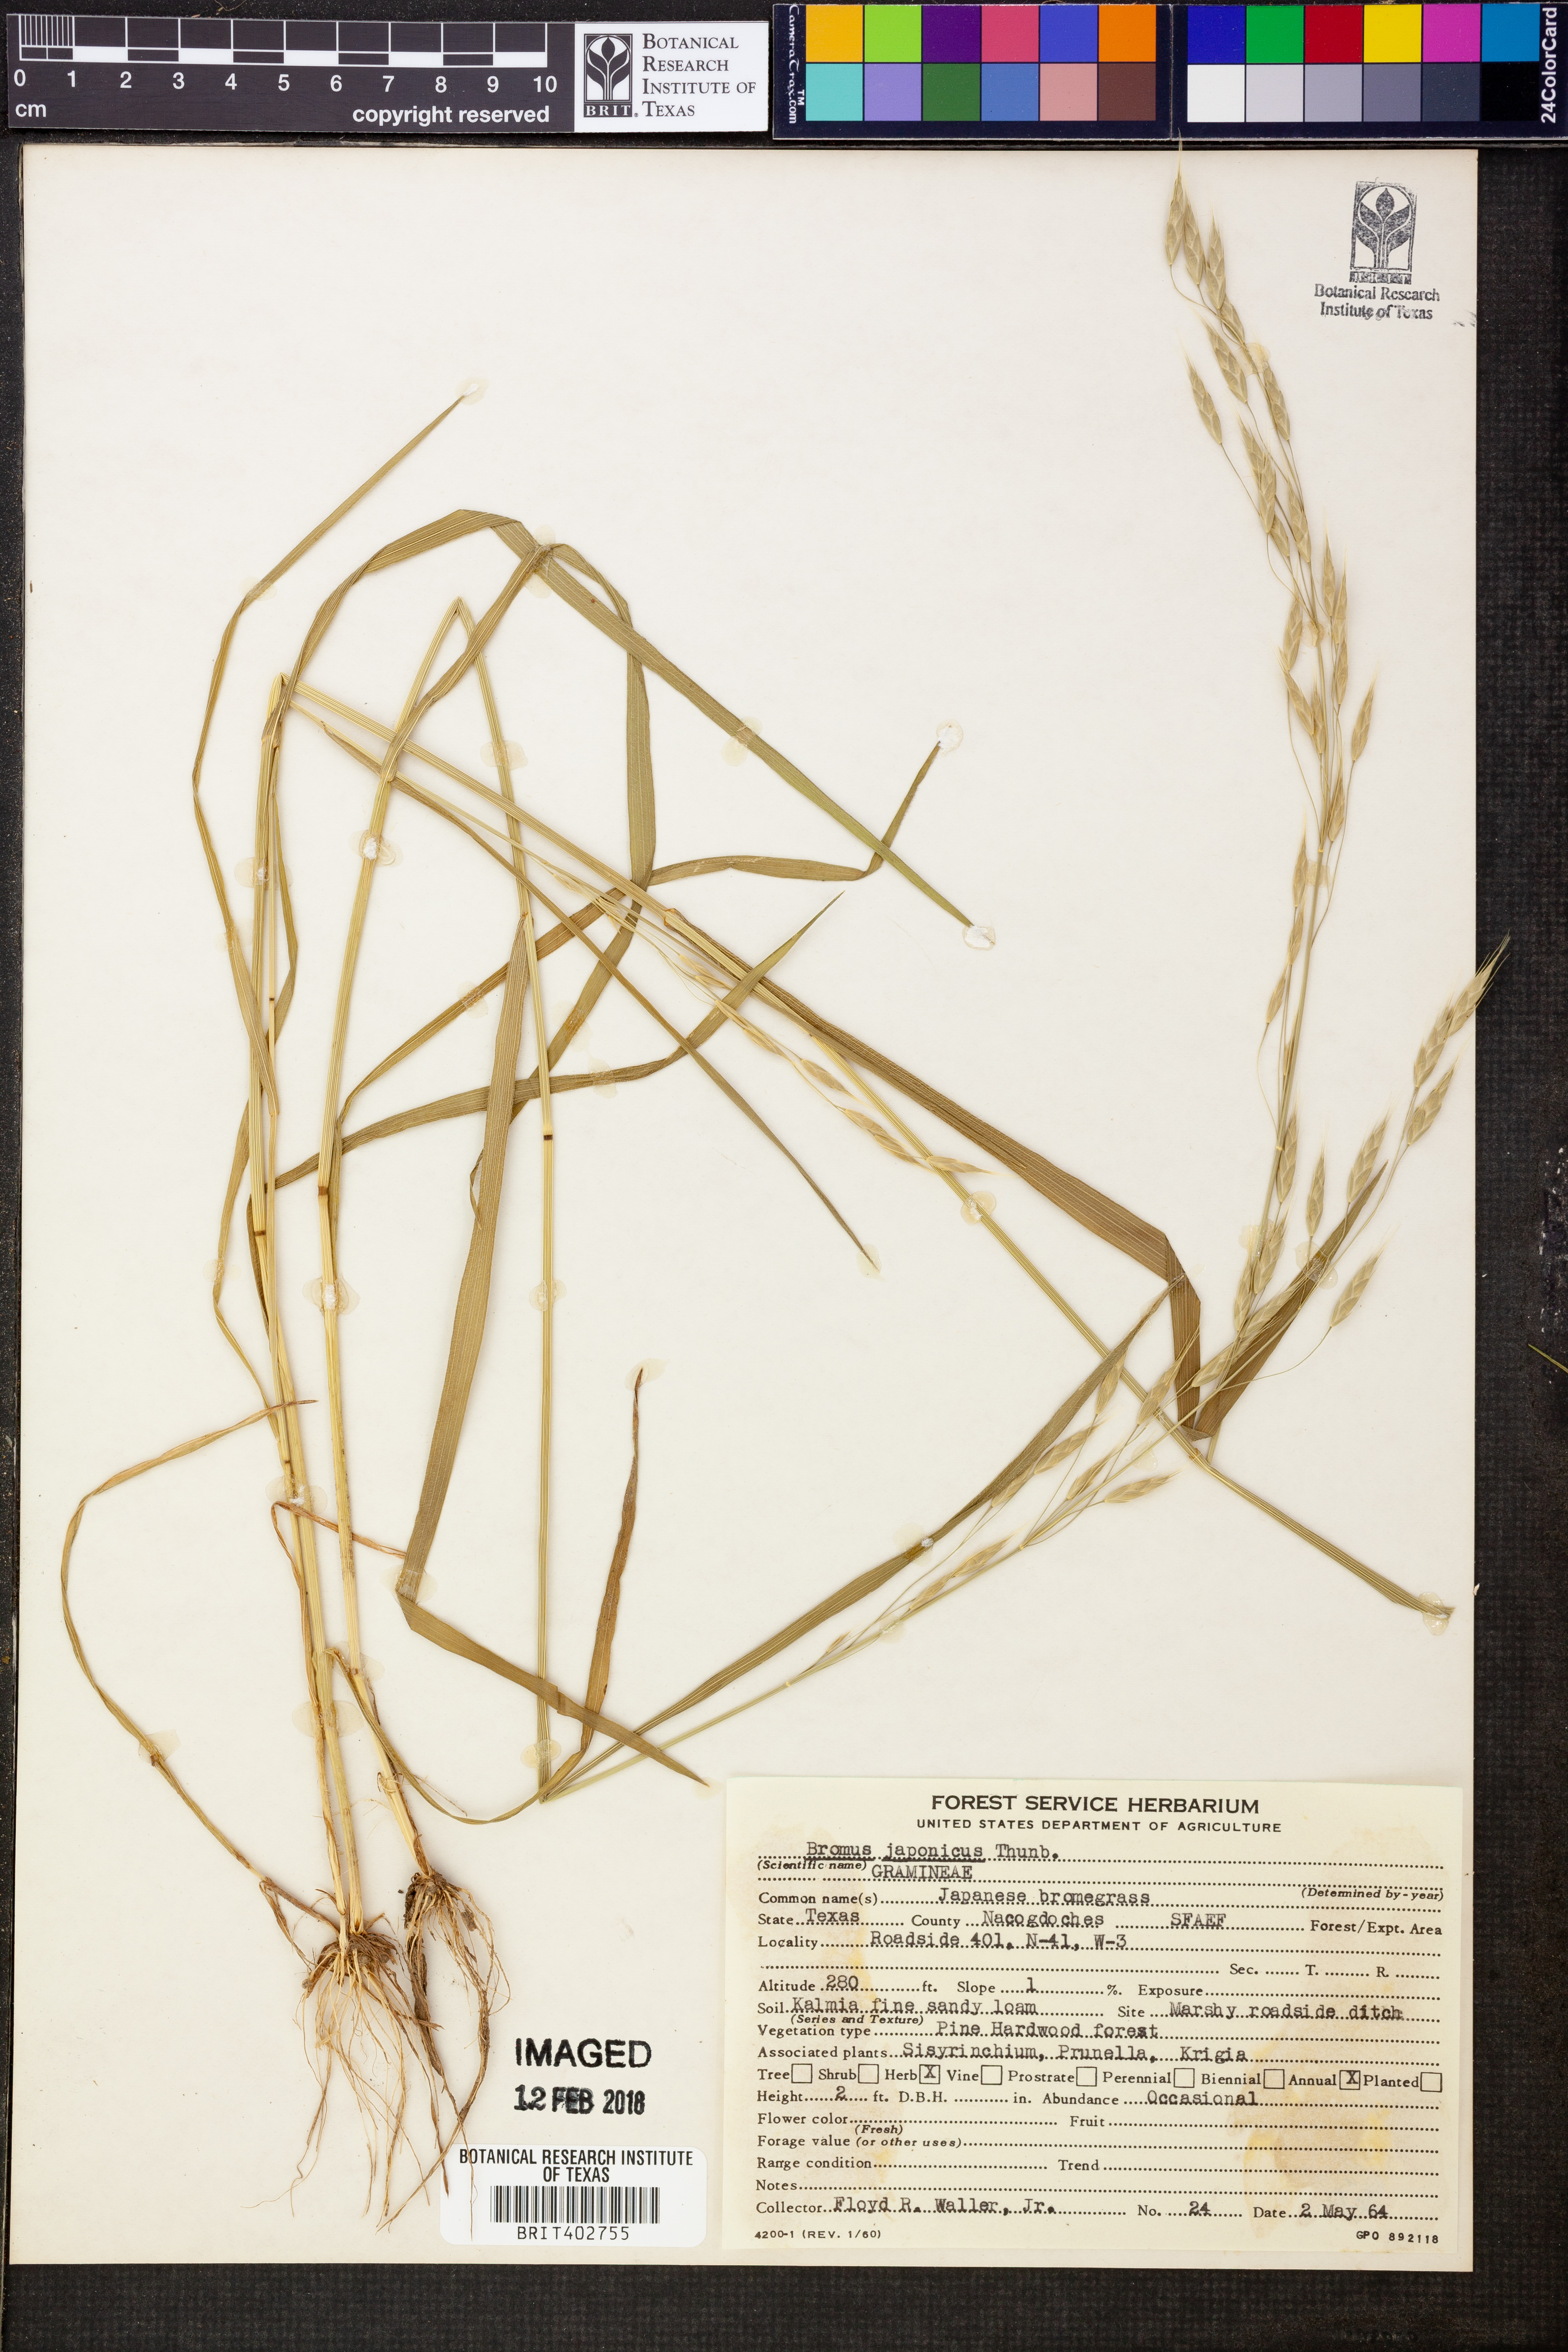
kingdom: Plantae
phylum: Tracheophyta
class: Liliopsida
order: Poales
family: Poaceae
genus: Bromus
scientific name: Bromus japonicus
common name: Japanese brome
